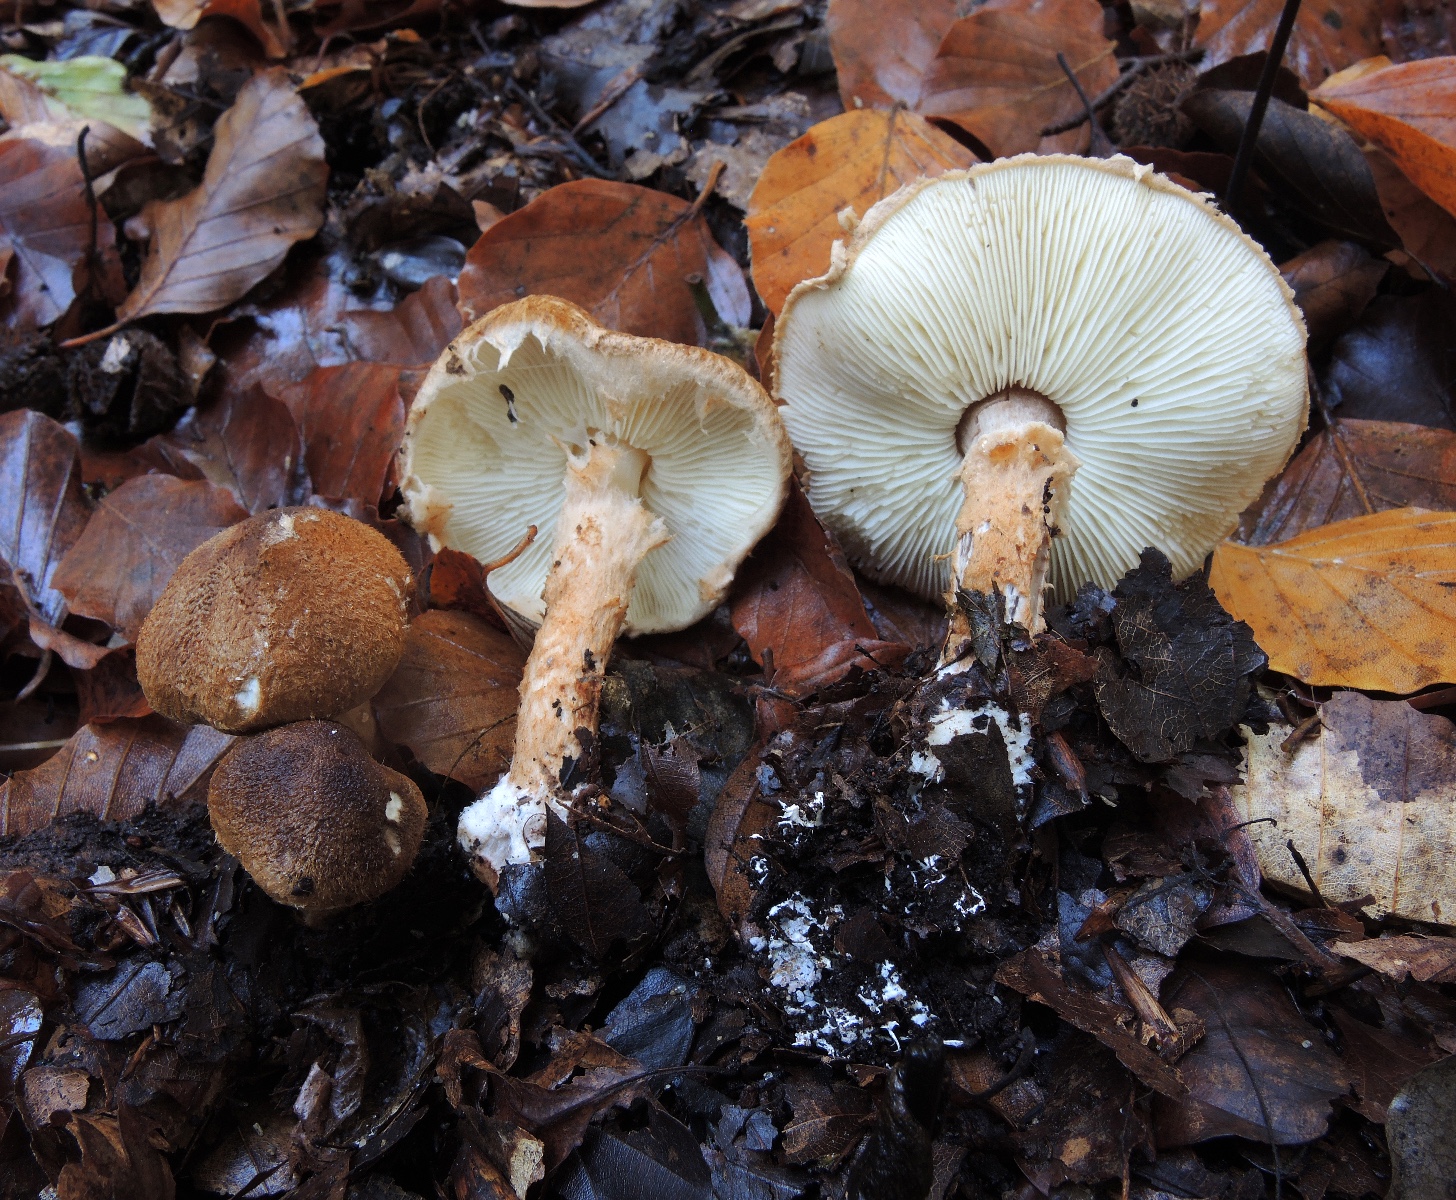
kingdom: Fungi
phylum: Basidiomycota
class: Agaricomycetes
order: Agaricales
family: Agaricaceae
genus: Leucocoprinus
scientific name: Leucocoprinus straminellus
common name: rustbrun parasolhat
